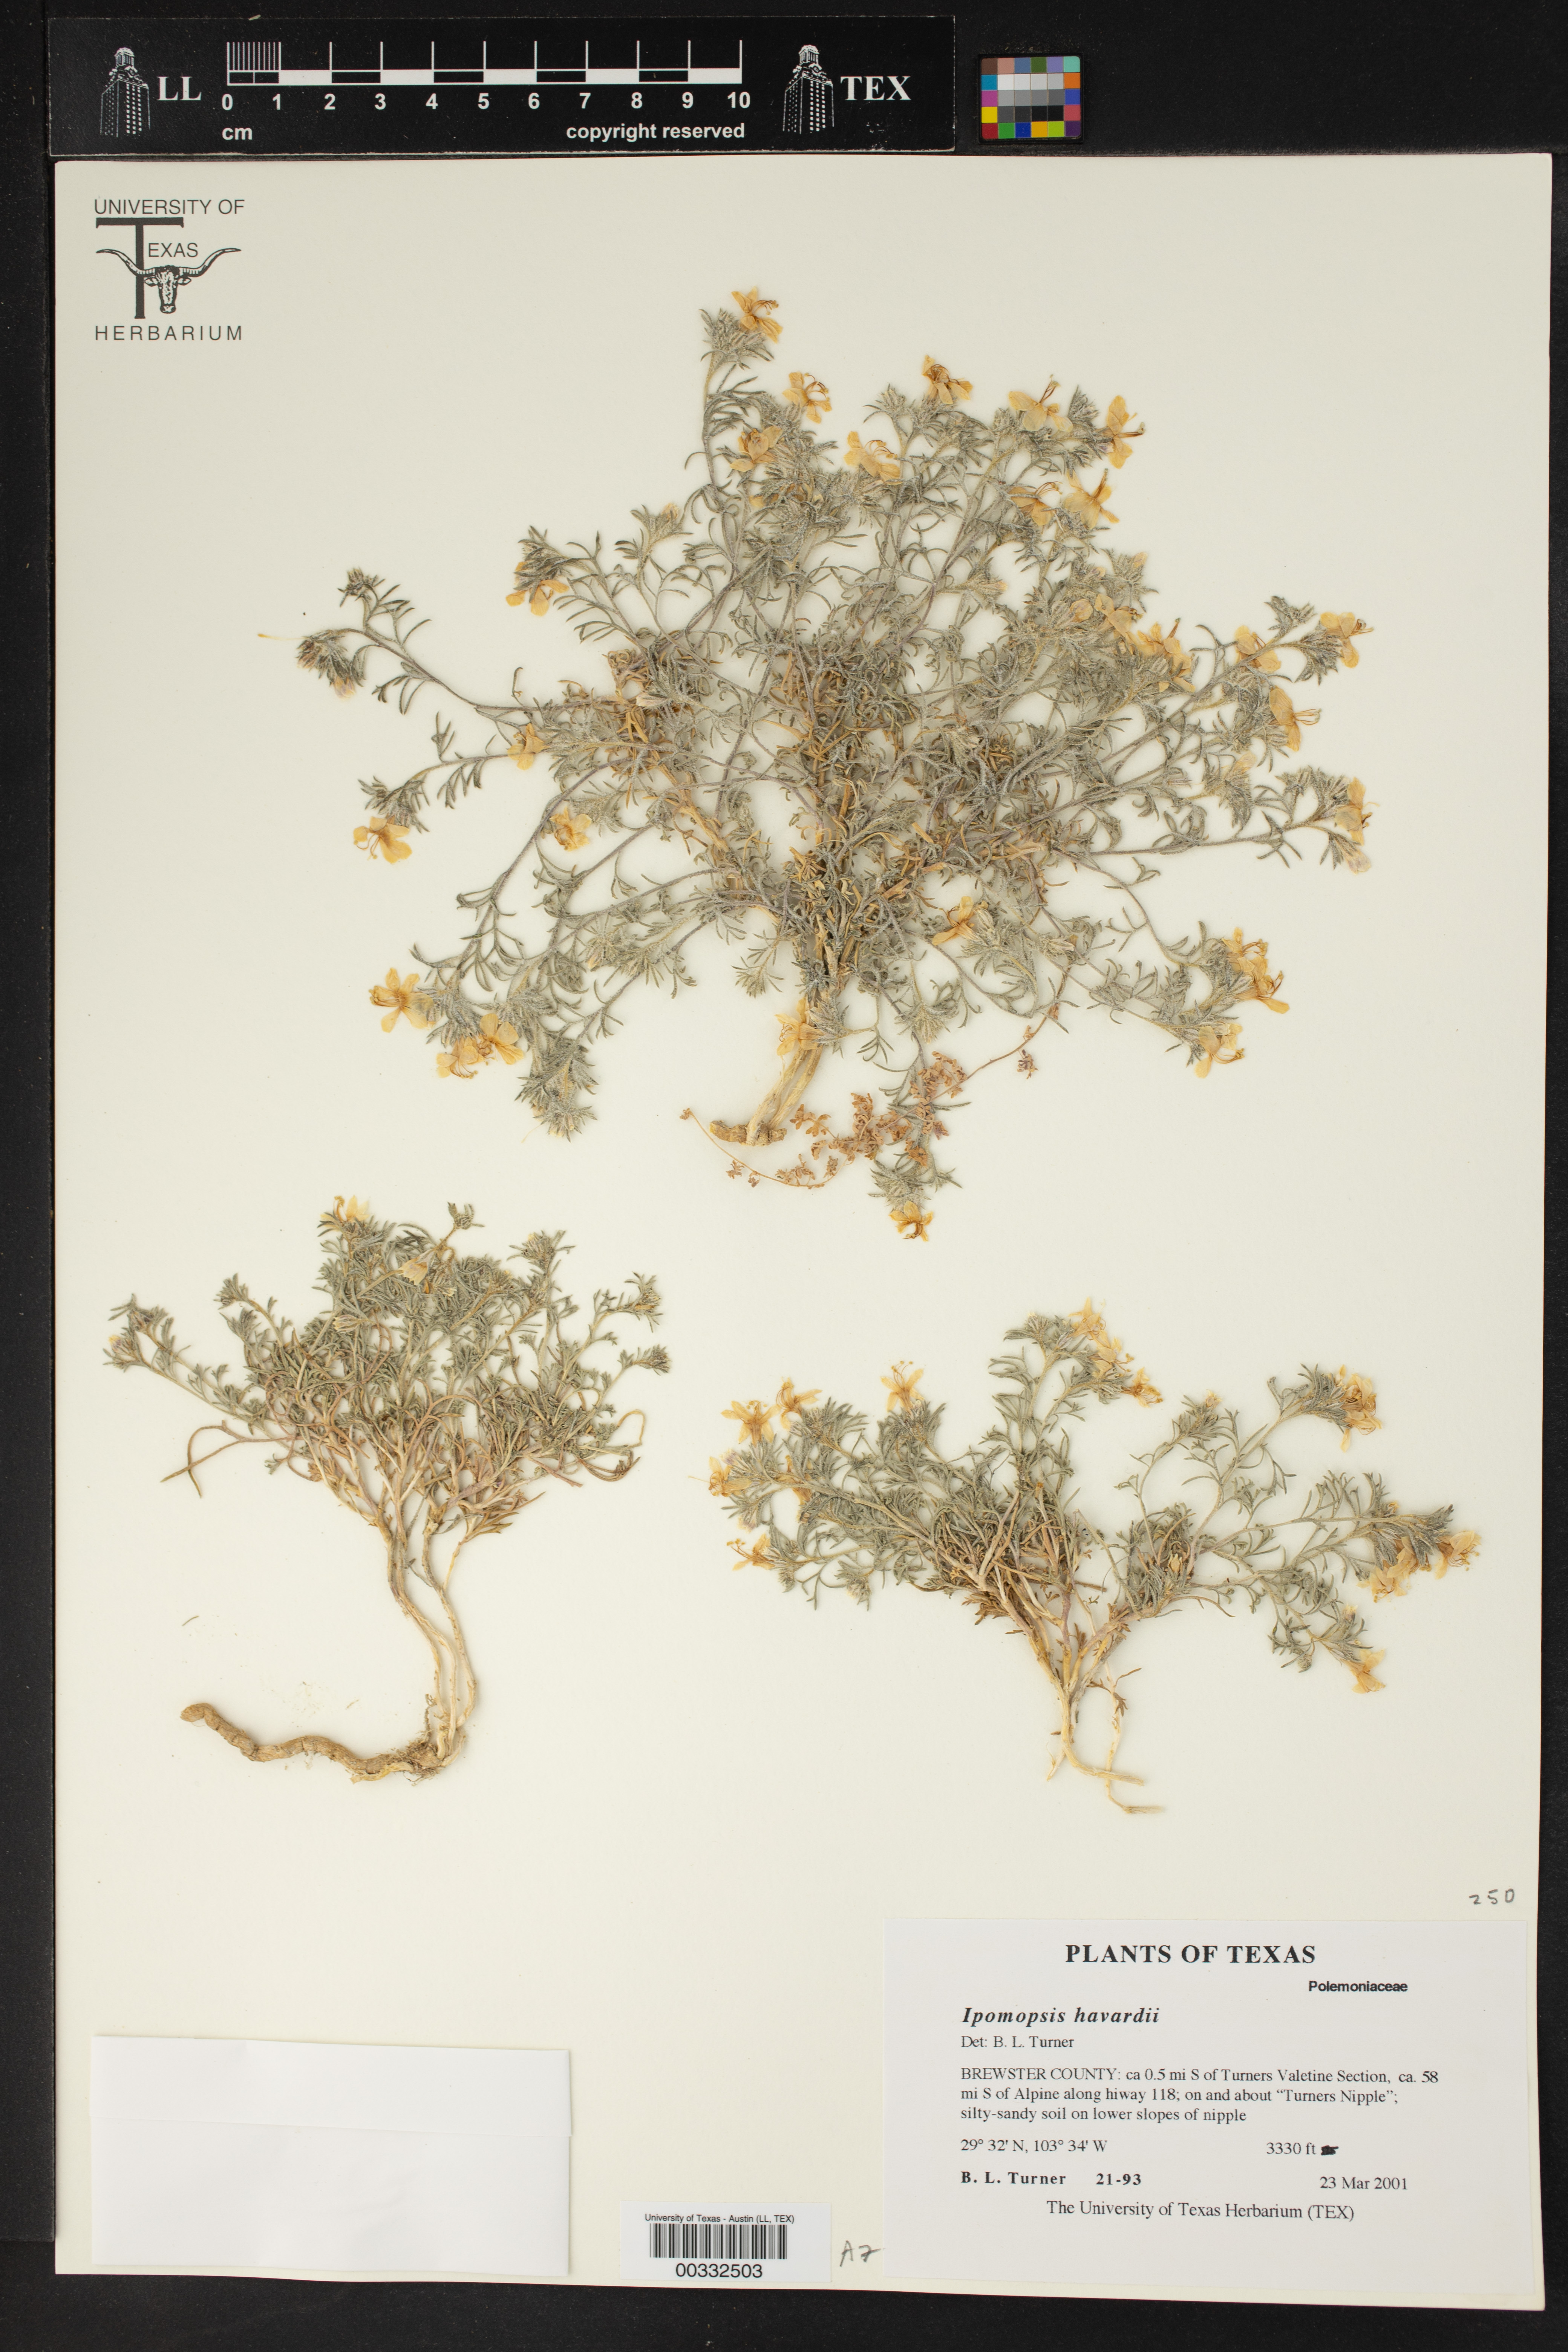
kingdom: Plantae
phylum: Tracheophyta
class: Magnoliopsida
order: Ericales
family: Polemoniaceae
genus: Dayia
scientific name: Dayia havardii
